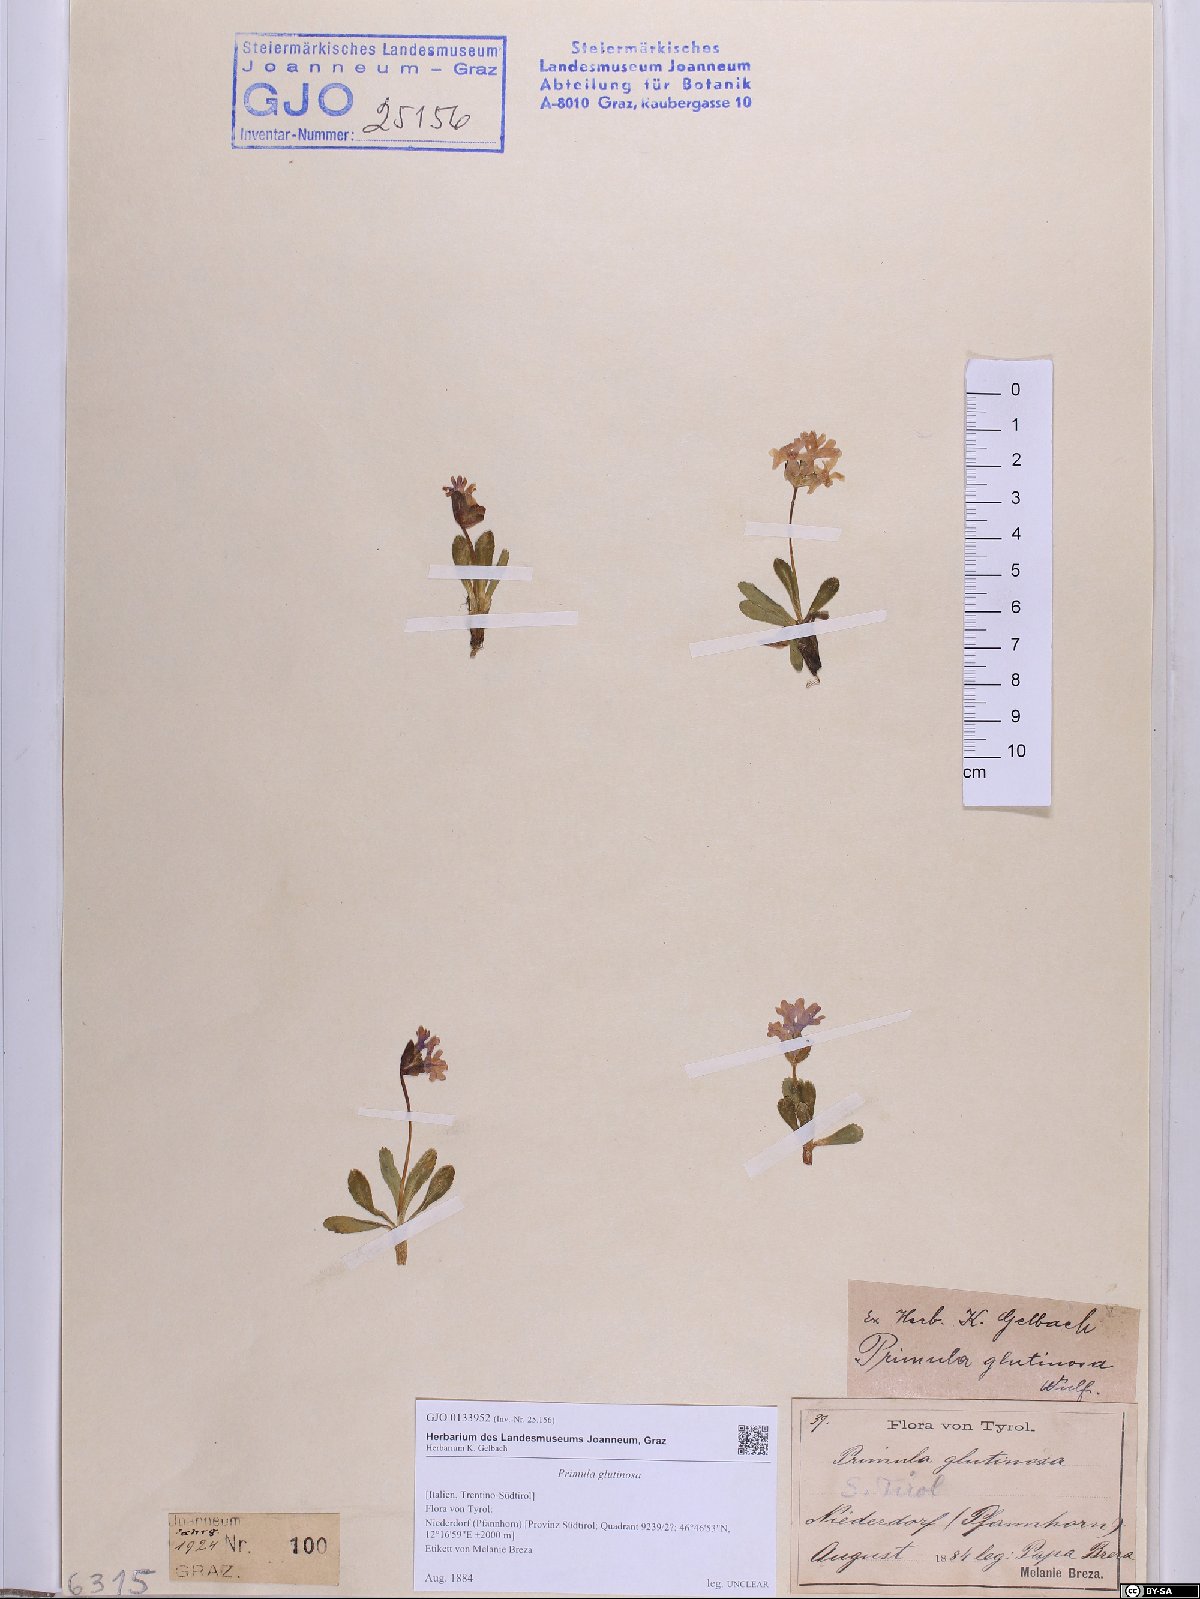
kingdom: Plantae
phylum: Tracheophyta
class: Magnoliopsida
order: Ericales
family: Primulaceae
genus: Primula
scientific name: Primula glutinosa
